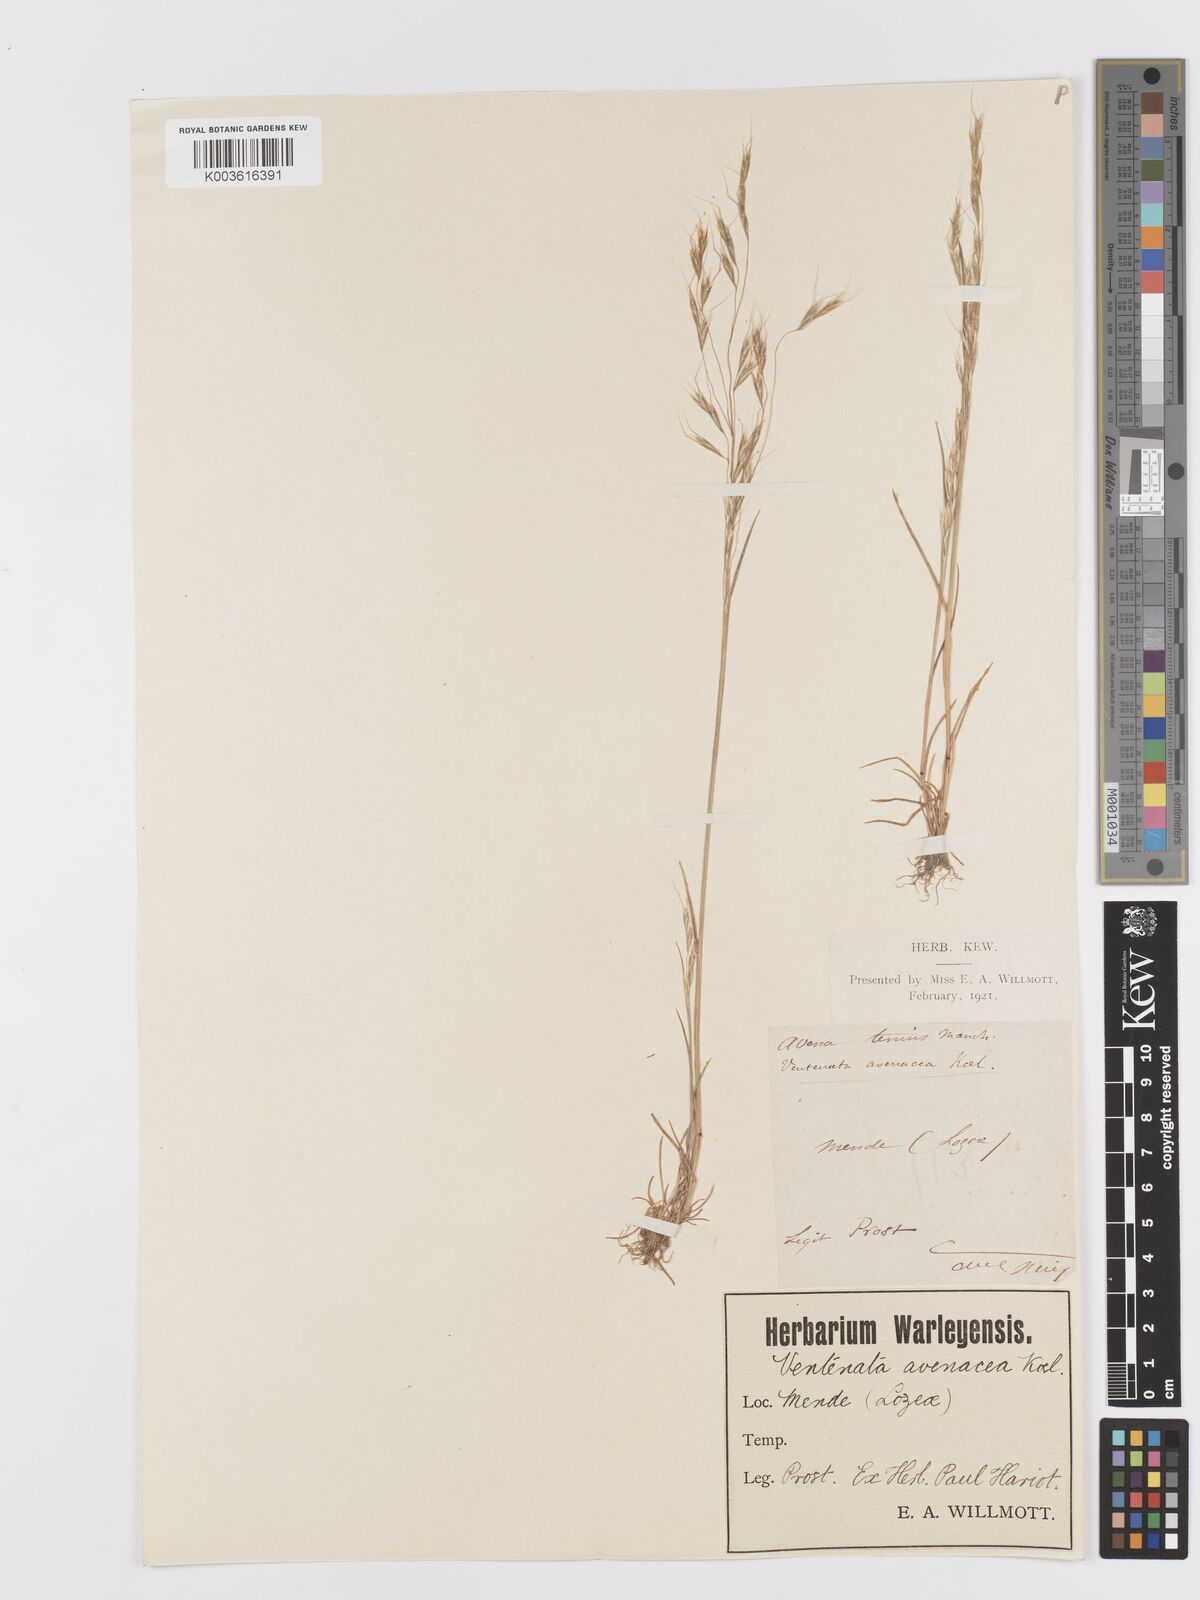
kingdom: Plantae
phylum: Tracheophyta
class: Liliopsida
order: Poales
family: Poaceae
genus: Ventenata
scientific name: Ventenata dubia
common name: North africa grass
